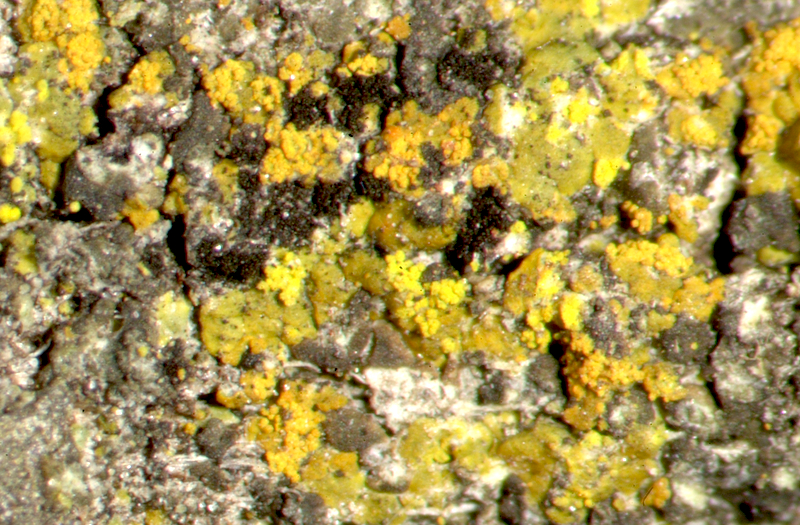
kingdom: Fungi
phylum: Ascomycota
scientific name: Ascomycota
